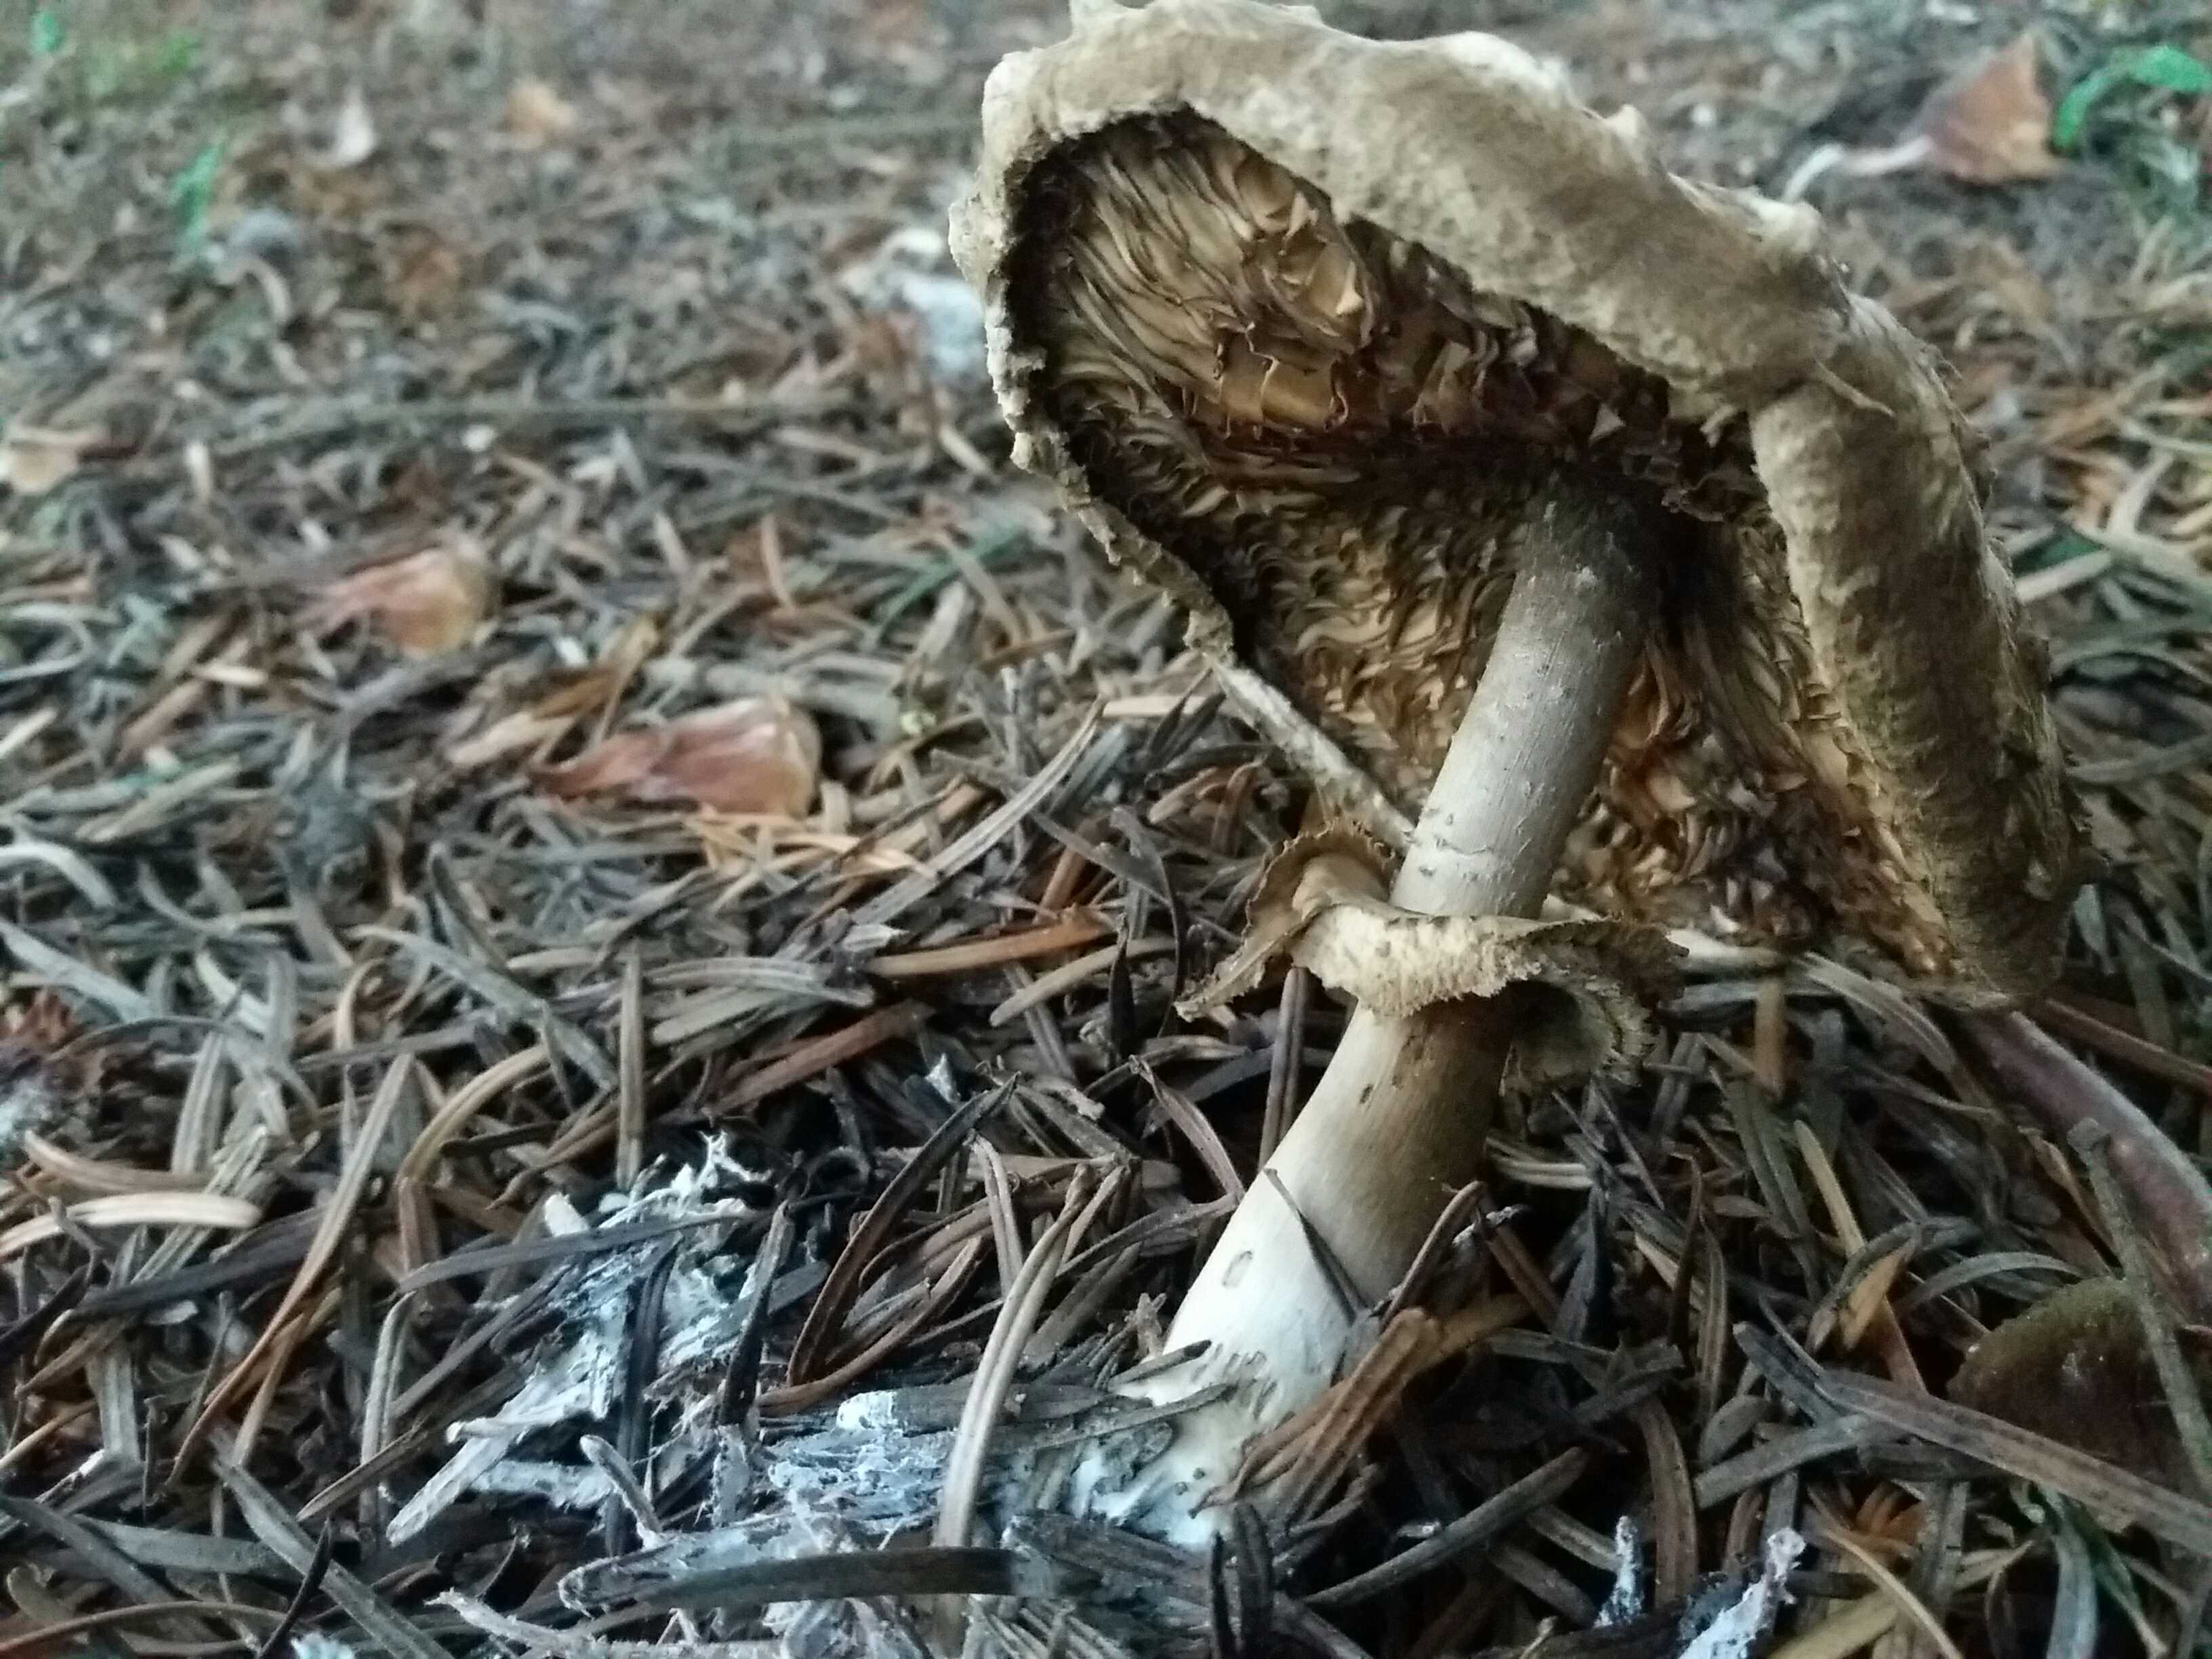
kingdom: Fungi
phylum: Basidiomycota
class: Agaricomycetes
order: Agaricales
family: Agaricaceae
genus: Chlorophyllum
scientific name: Chlorophyllum olivieri
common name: almindelig rabarberhat
